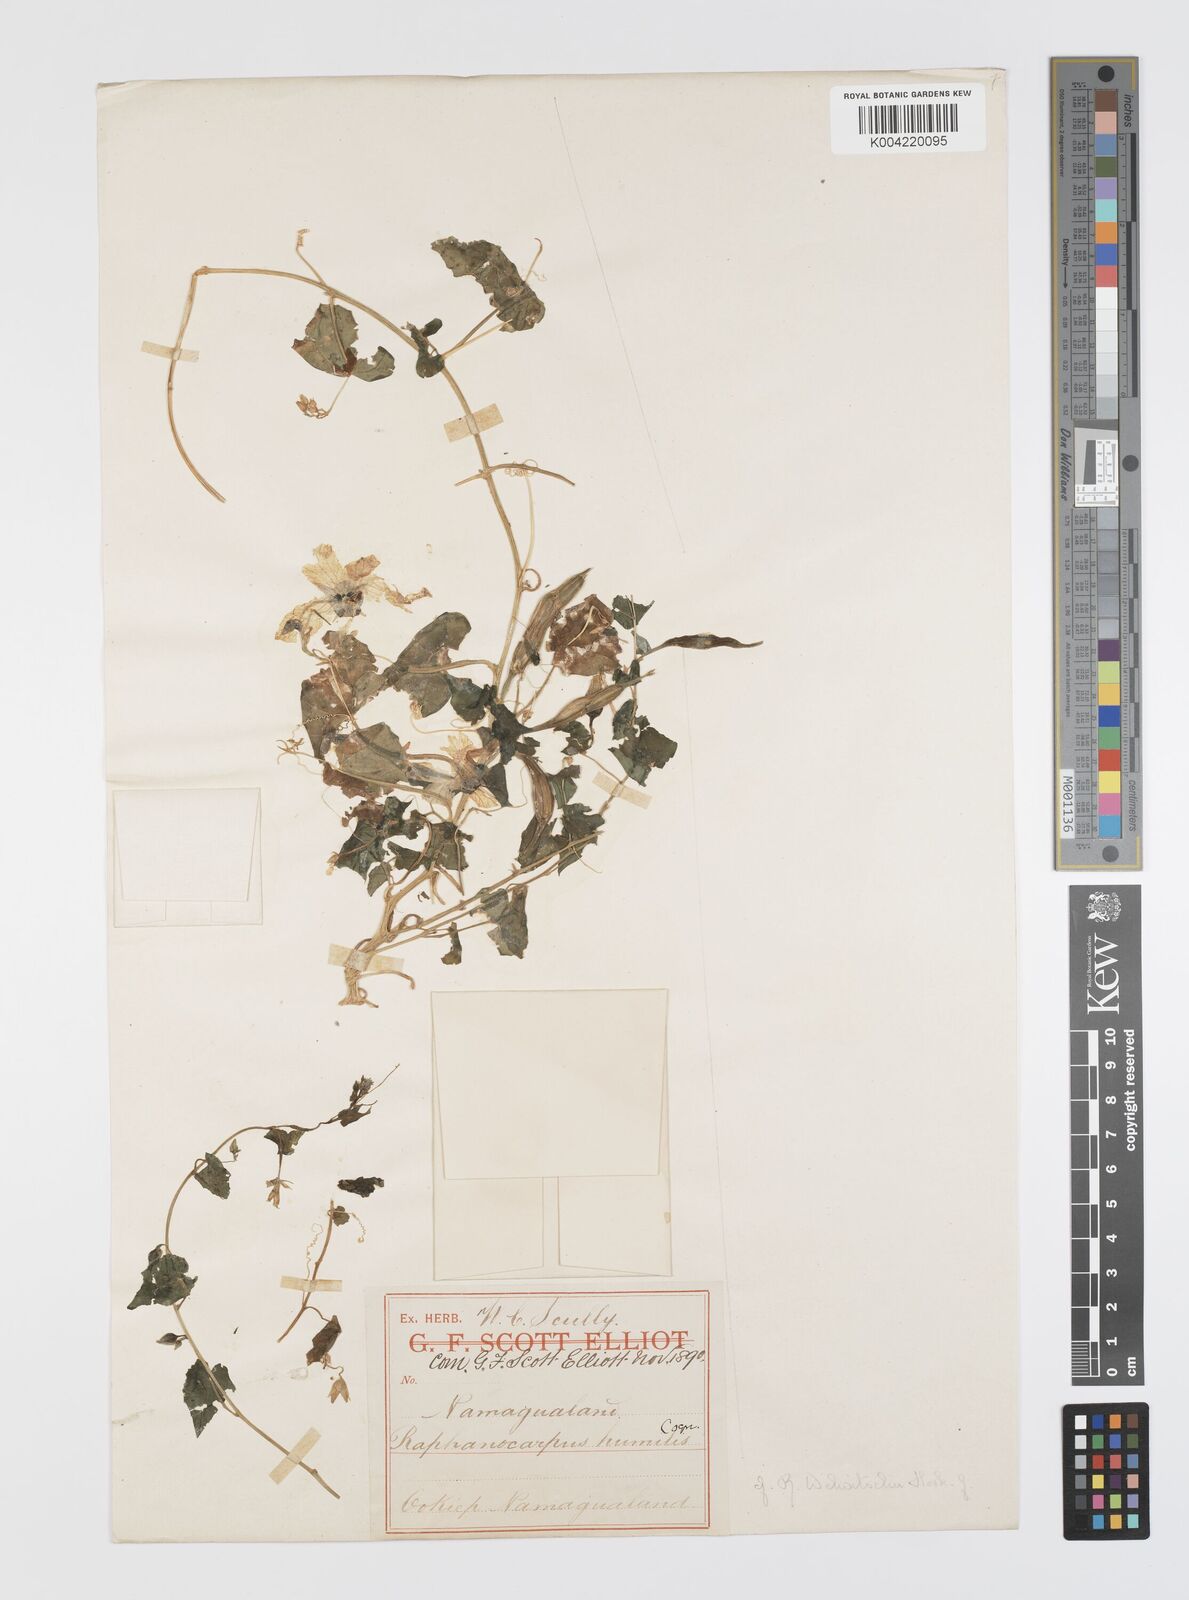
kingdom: Plantae
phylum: Tracheophyta
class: Magnoliopsida
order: Cucurbitales
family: Cucurbitaceae
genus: Momordica
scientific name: Momordica
